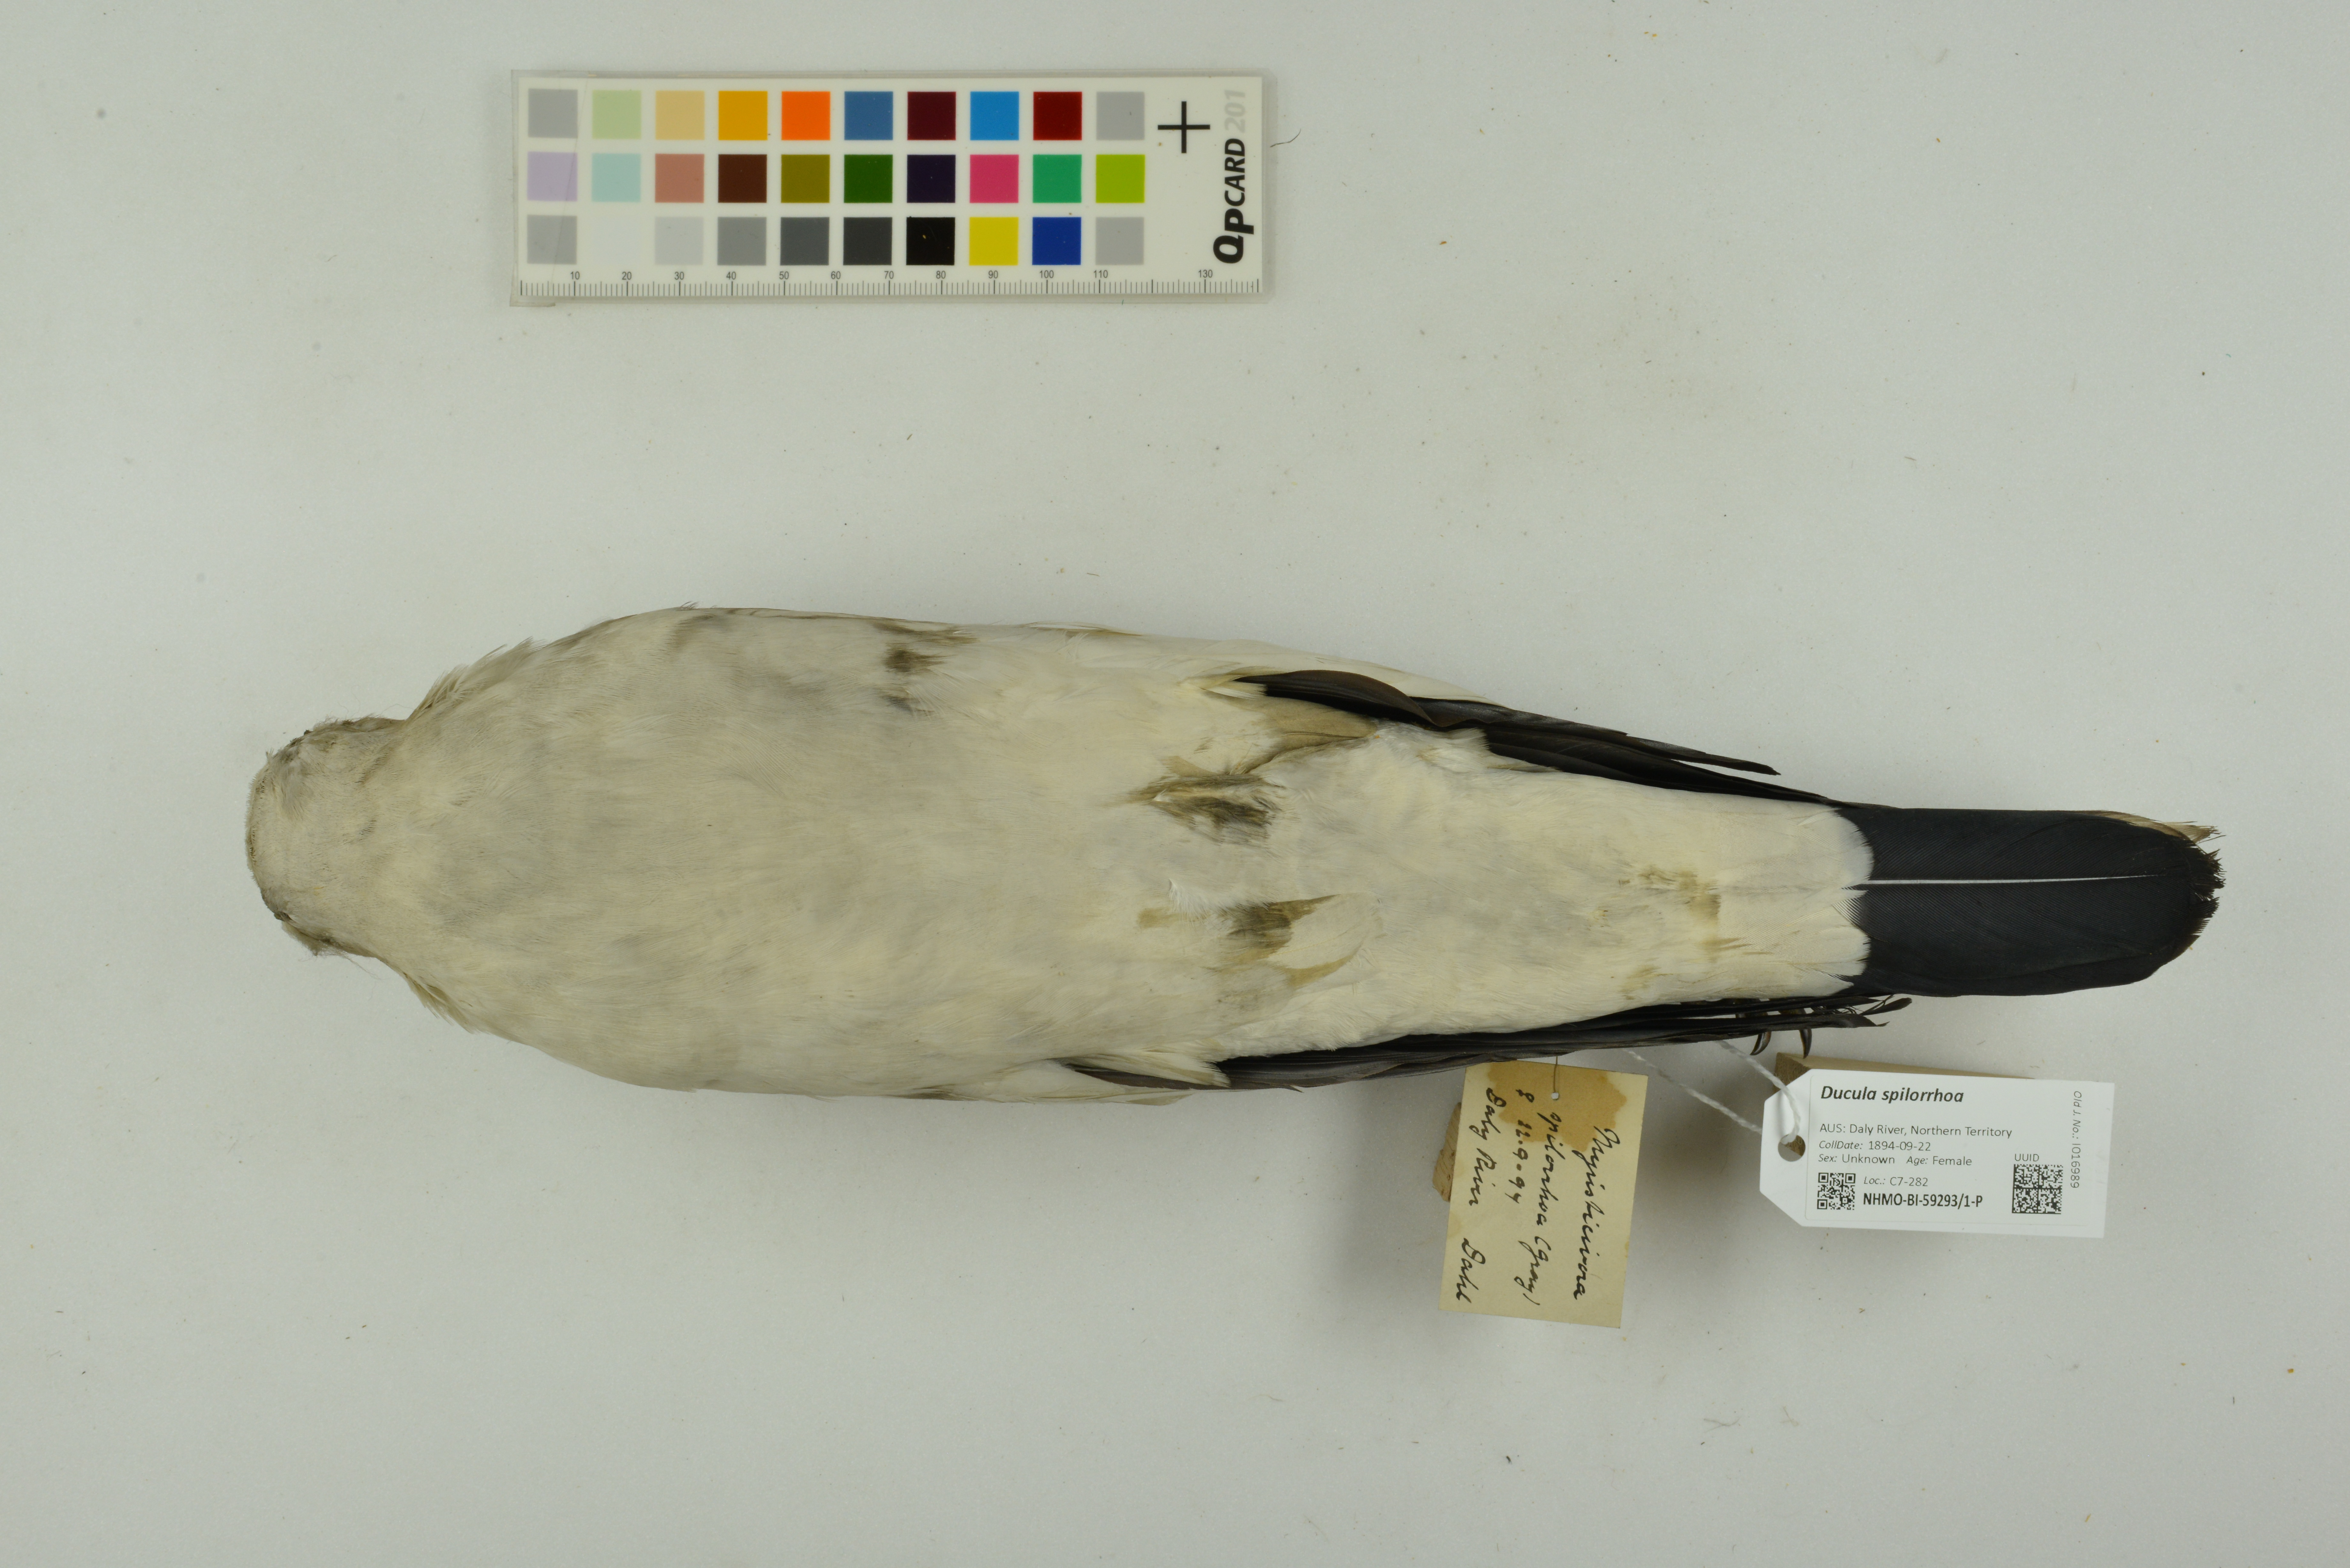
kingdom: Animalia
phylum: Chordata
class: Aves
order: Columbiformes
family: Columbidae
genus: Ducula
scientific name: Ducula spilorrhoa
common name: Torresian imperial pigeon
